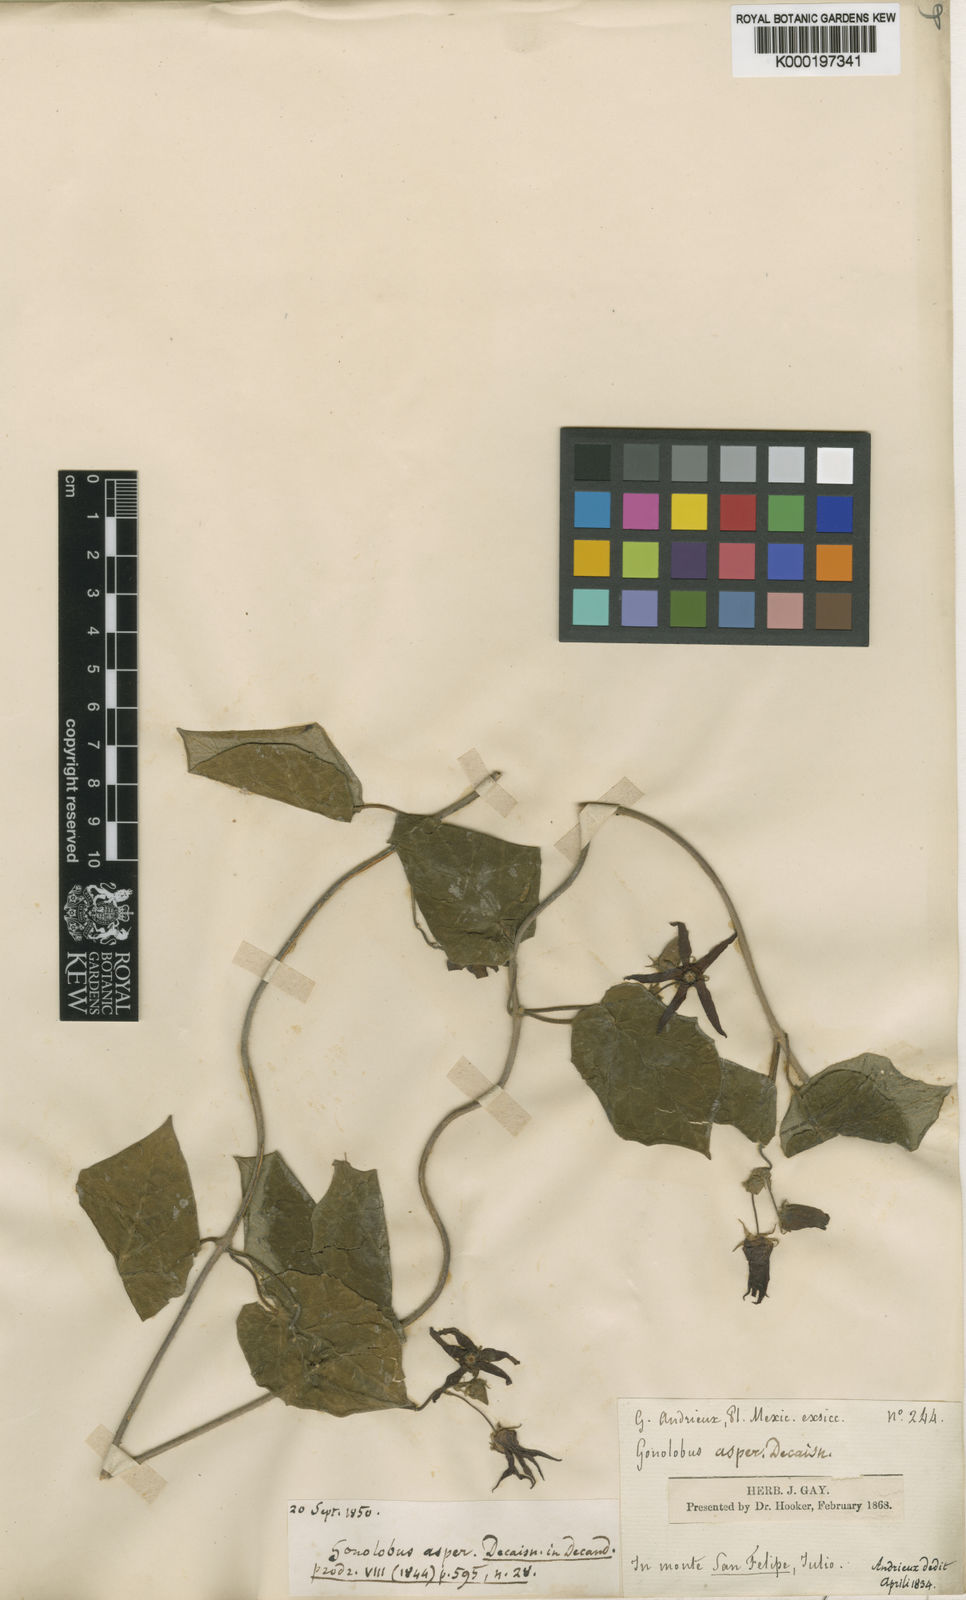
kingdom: Plantae
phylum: Tracheophyta
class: Magnoliopsida
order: Gentianales
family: Apocynaceae
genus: Gonolobus
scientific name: Gonolobus asper
